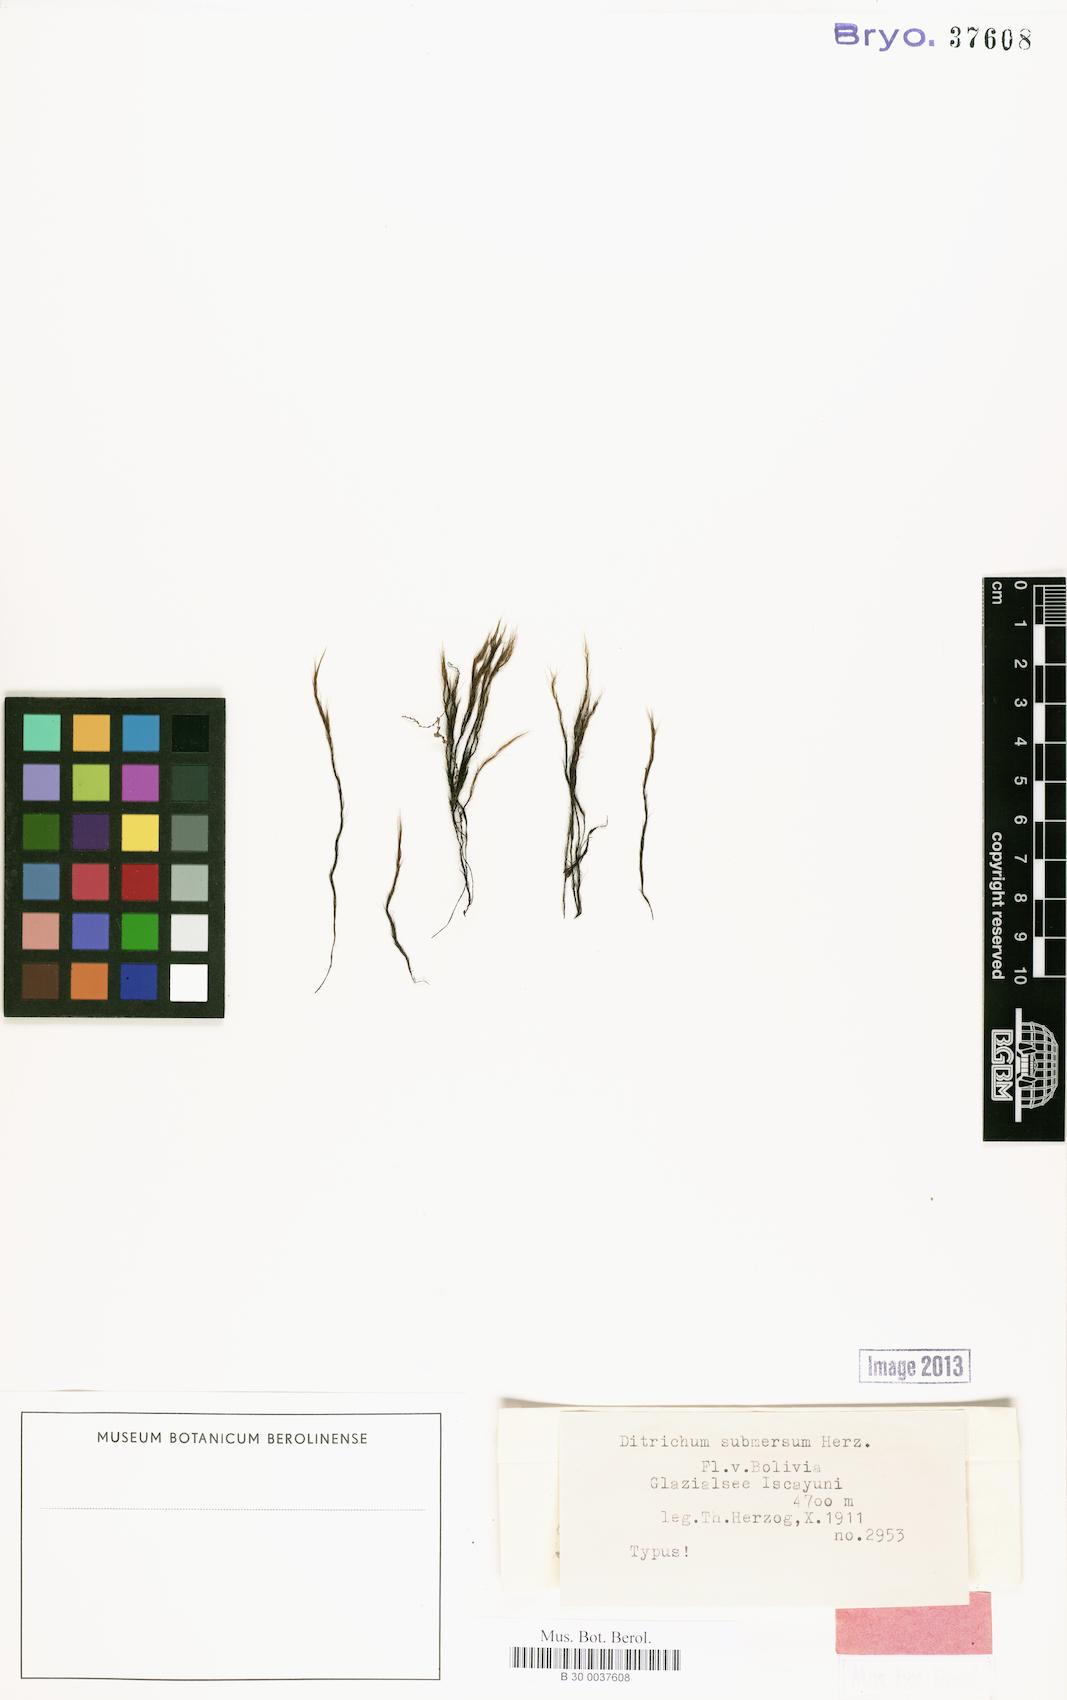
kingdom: Plantae
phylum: Bryophyta
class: Bryopsida
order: Dicranales
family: Ditrichaceae
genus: Ditrichum
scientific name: Ditrichum submersum
